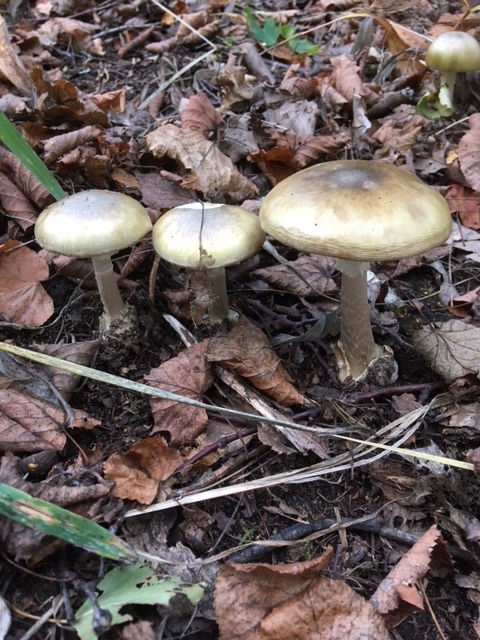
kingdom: Fungi
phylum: Basidiomycota
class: Agaricomycetes
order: Agaricales
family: Amanitaceae
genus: Amanita
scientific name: Amanita phalloides
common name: Death cap
